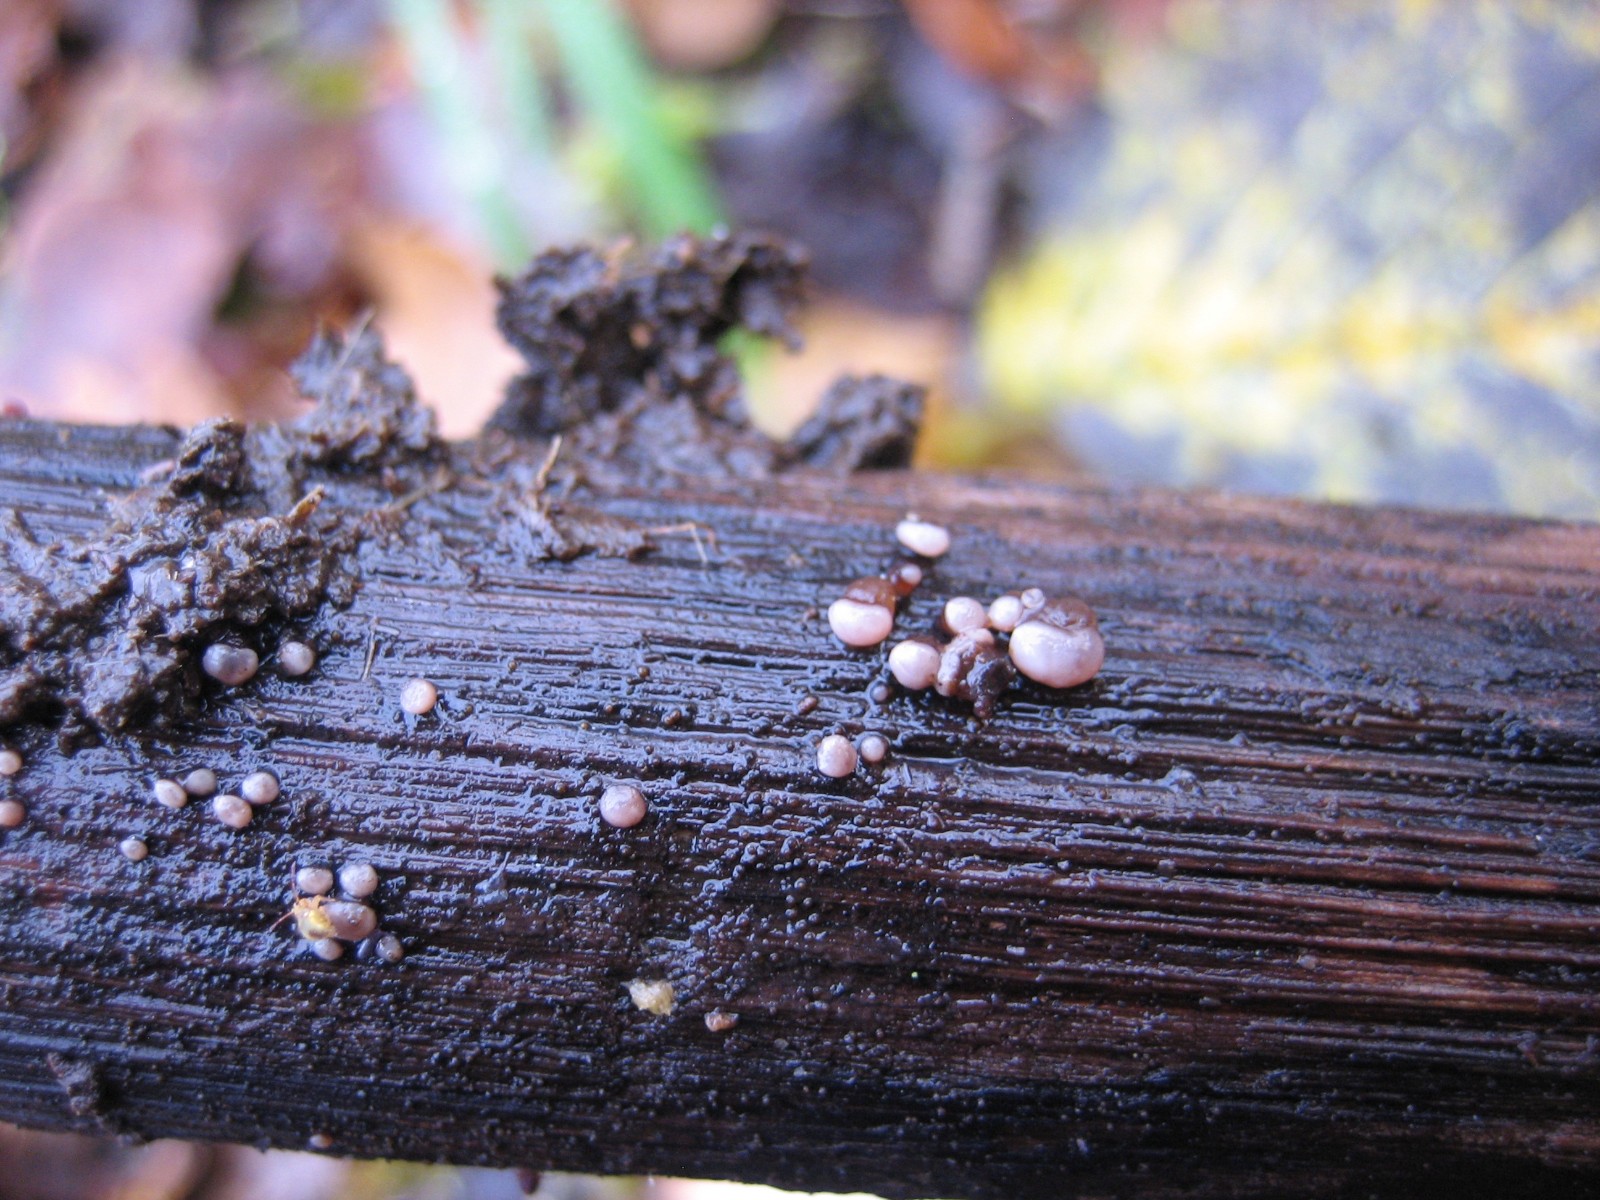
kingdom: Fungi
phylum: Ascomycota
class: Leotiomycetes
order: Helotiales
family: Gelatinodiscaceae
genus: Ascocoryne
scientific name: Ascocoryne albida
